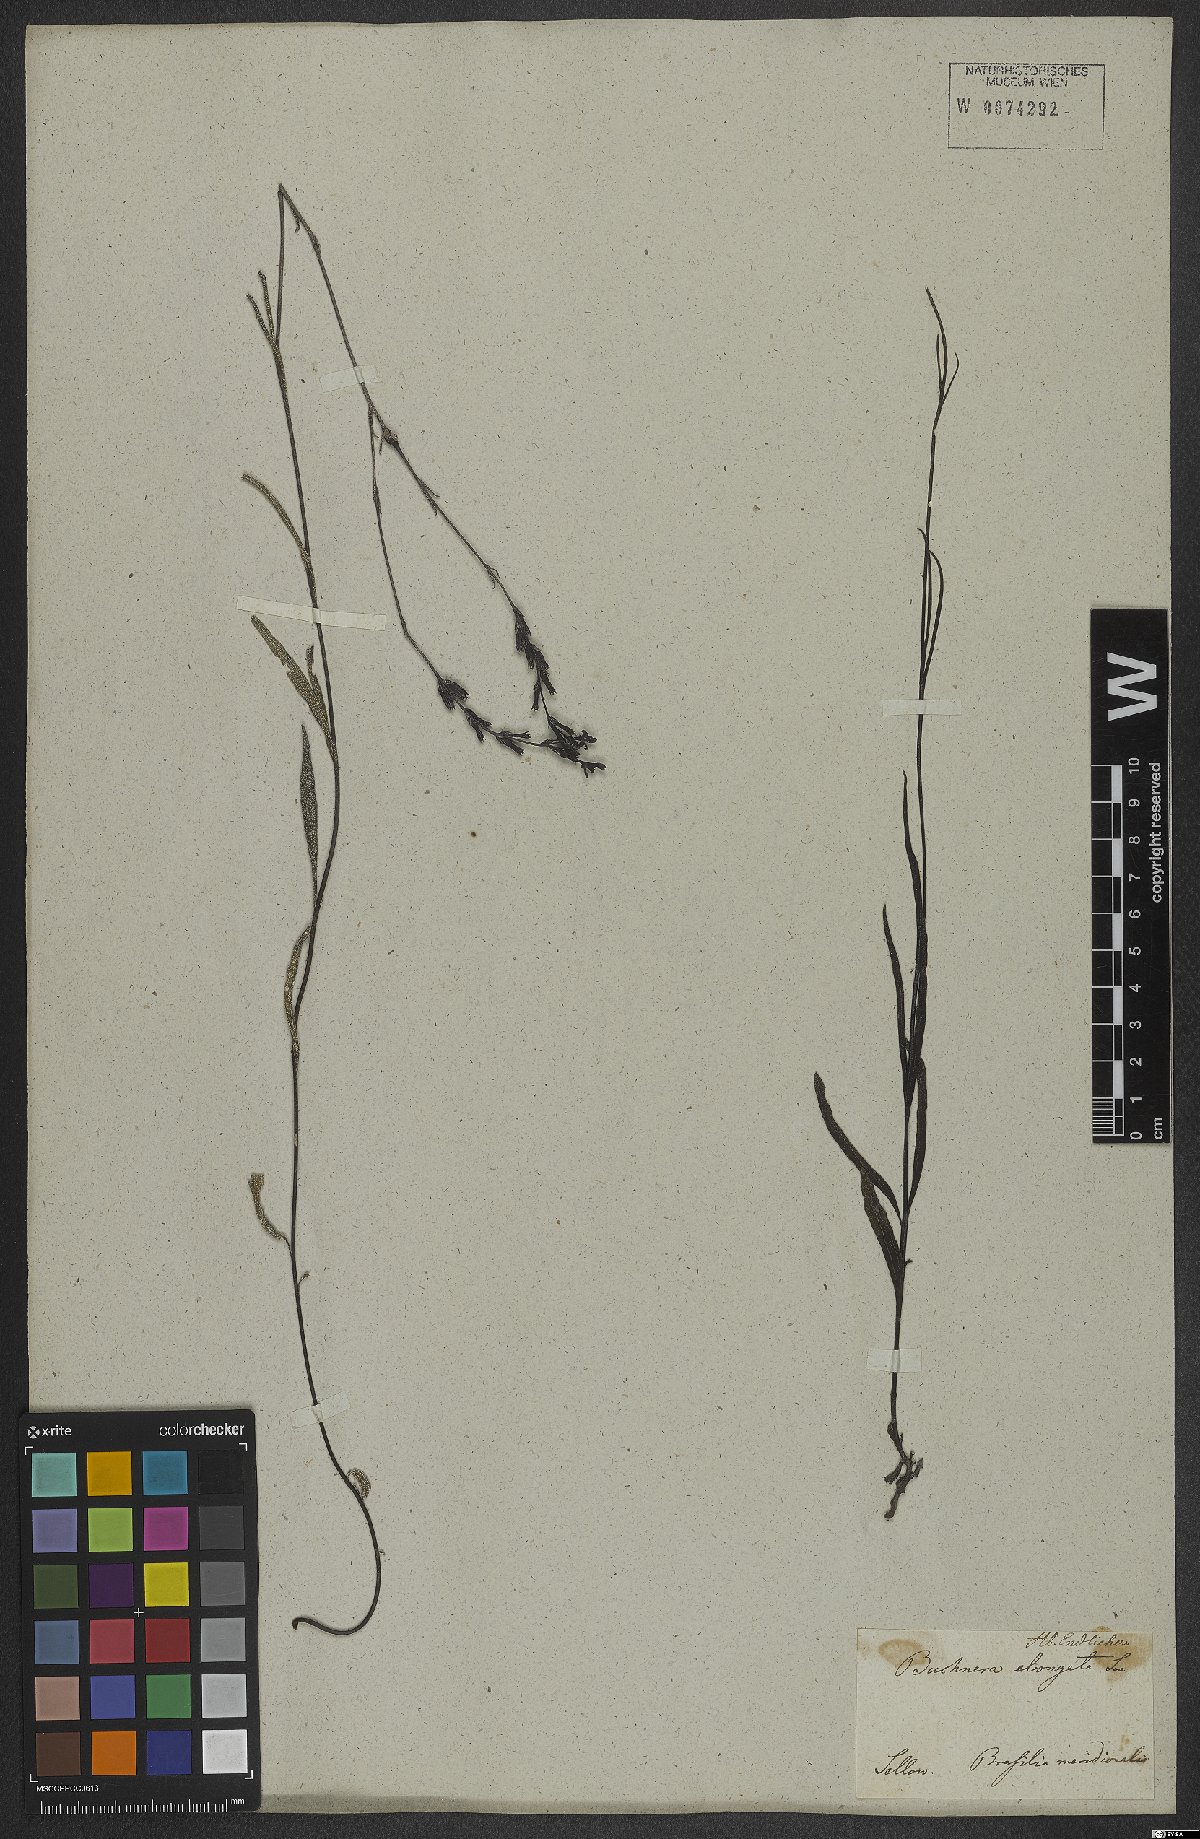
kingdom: Plantae
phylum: Tracheophyta
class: Magnoliopsida
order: Lamiales
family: Orobanchaceae
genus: Buchnera
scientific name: Buchnera
